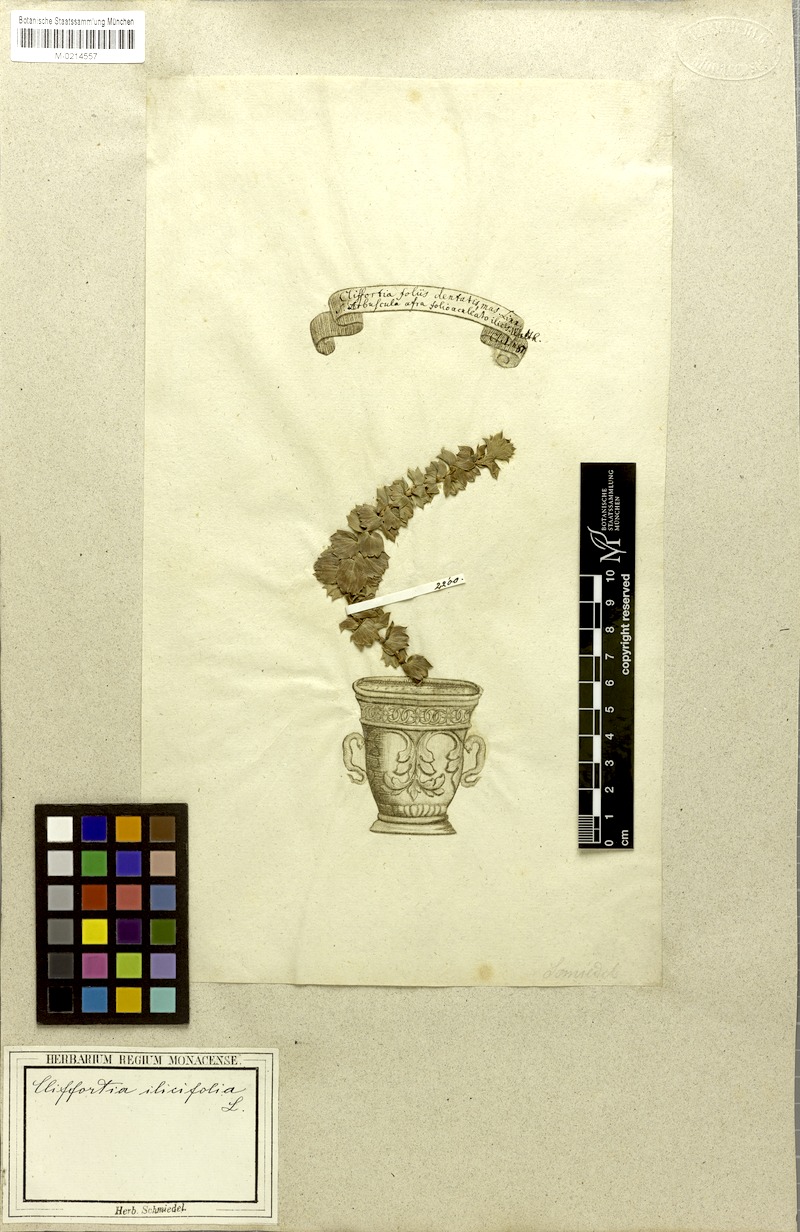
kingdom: Plantae
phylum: Tracheophyta
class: Magnoliopsida
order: Rosales
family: Rosaceae
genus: Cliffortia
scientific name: Cliffortia ilicifolia
